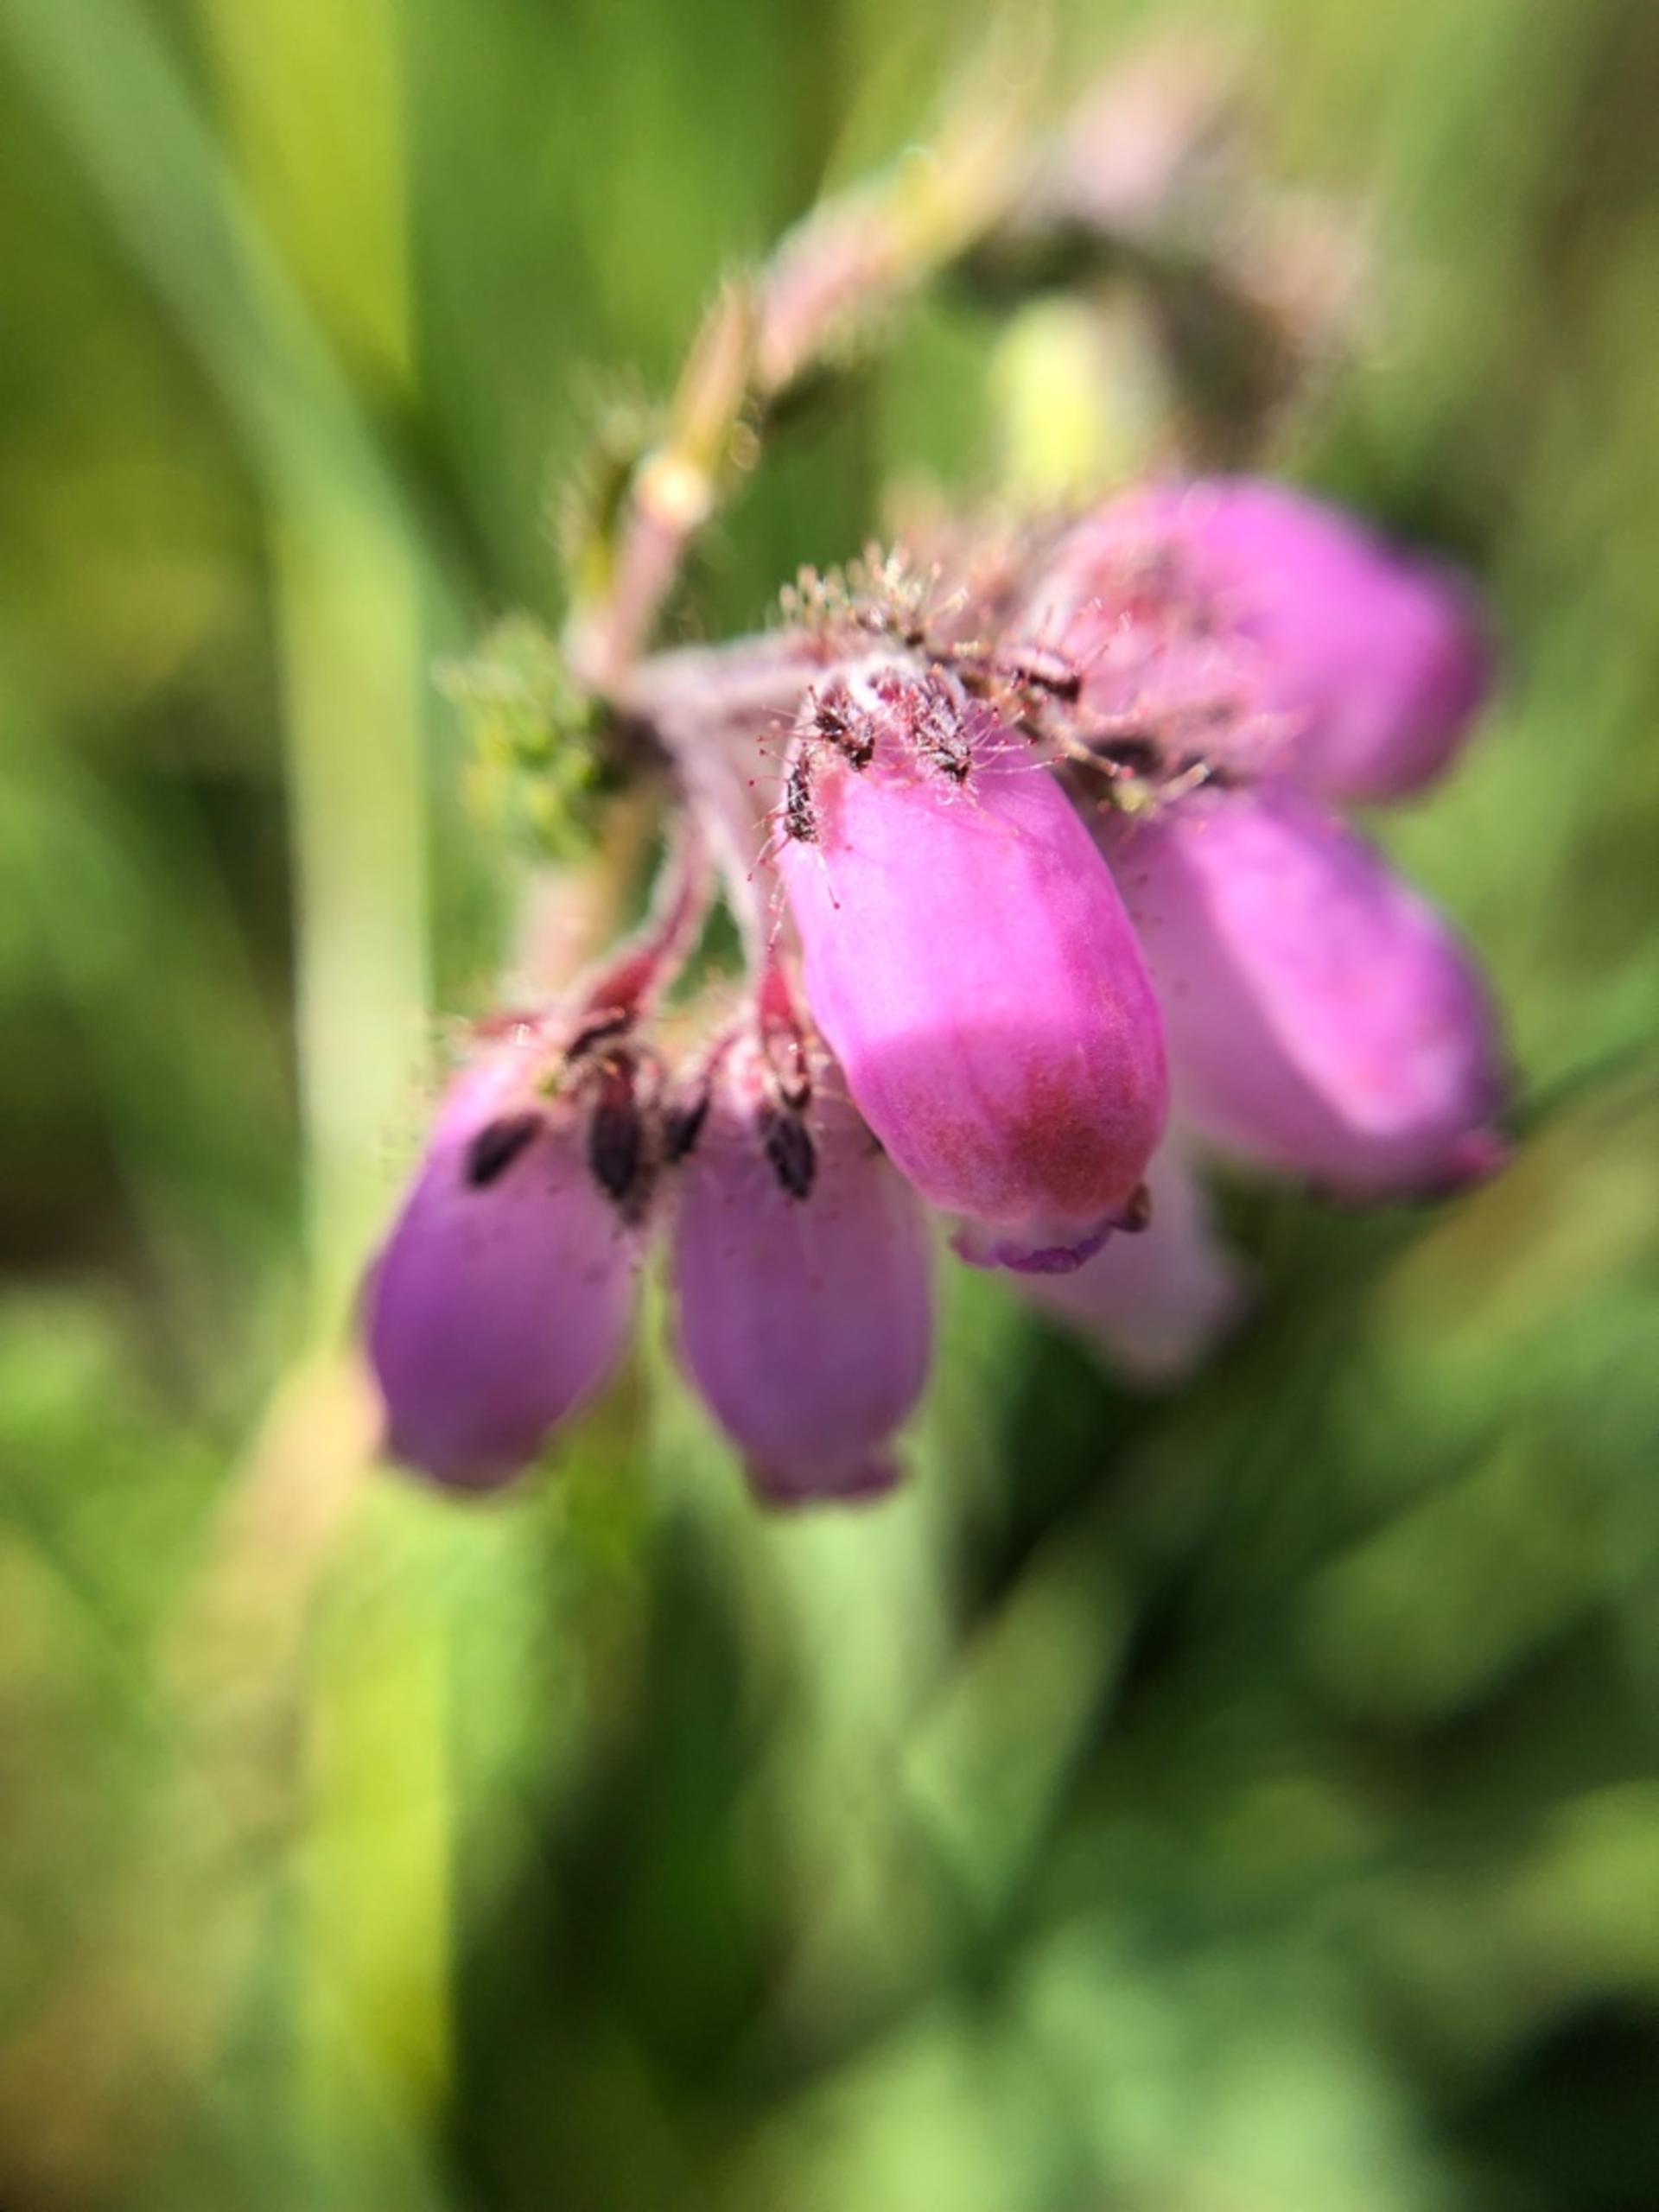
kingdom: Plantae
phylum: Tracheophyta
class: Magnoliopsida
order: Ericales
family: Ericaceae
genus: Erica
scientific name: Erica tetralix
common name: Klokkelyng
